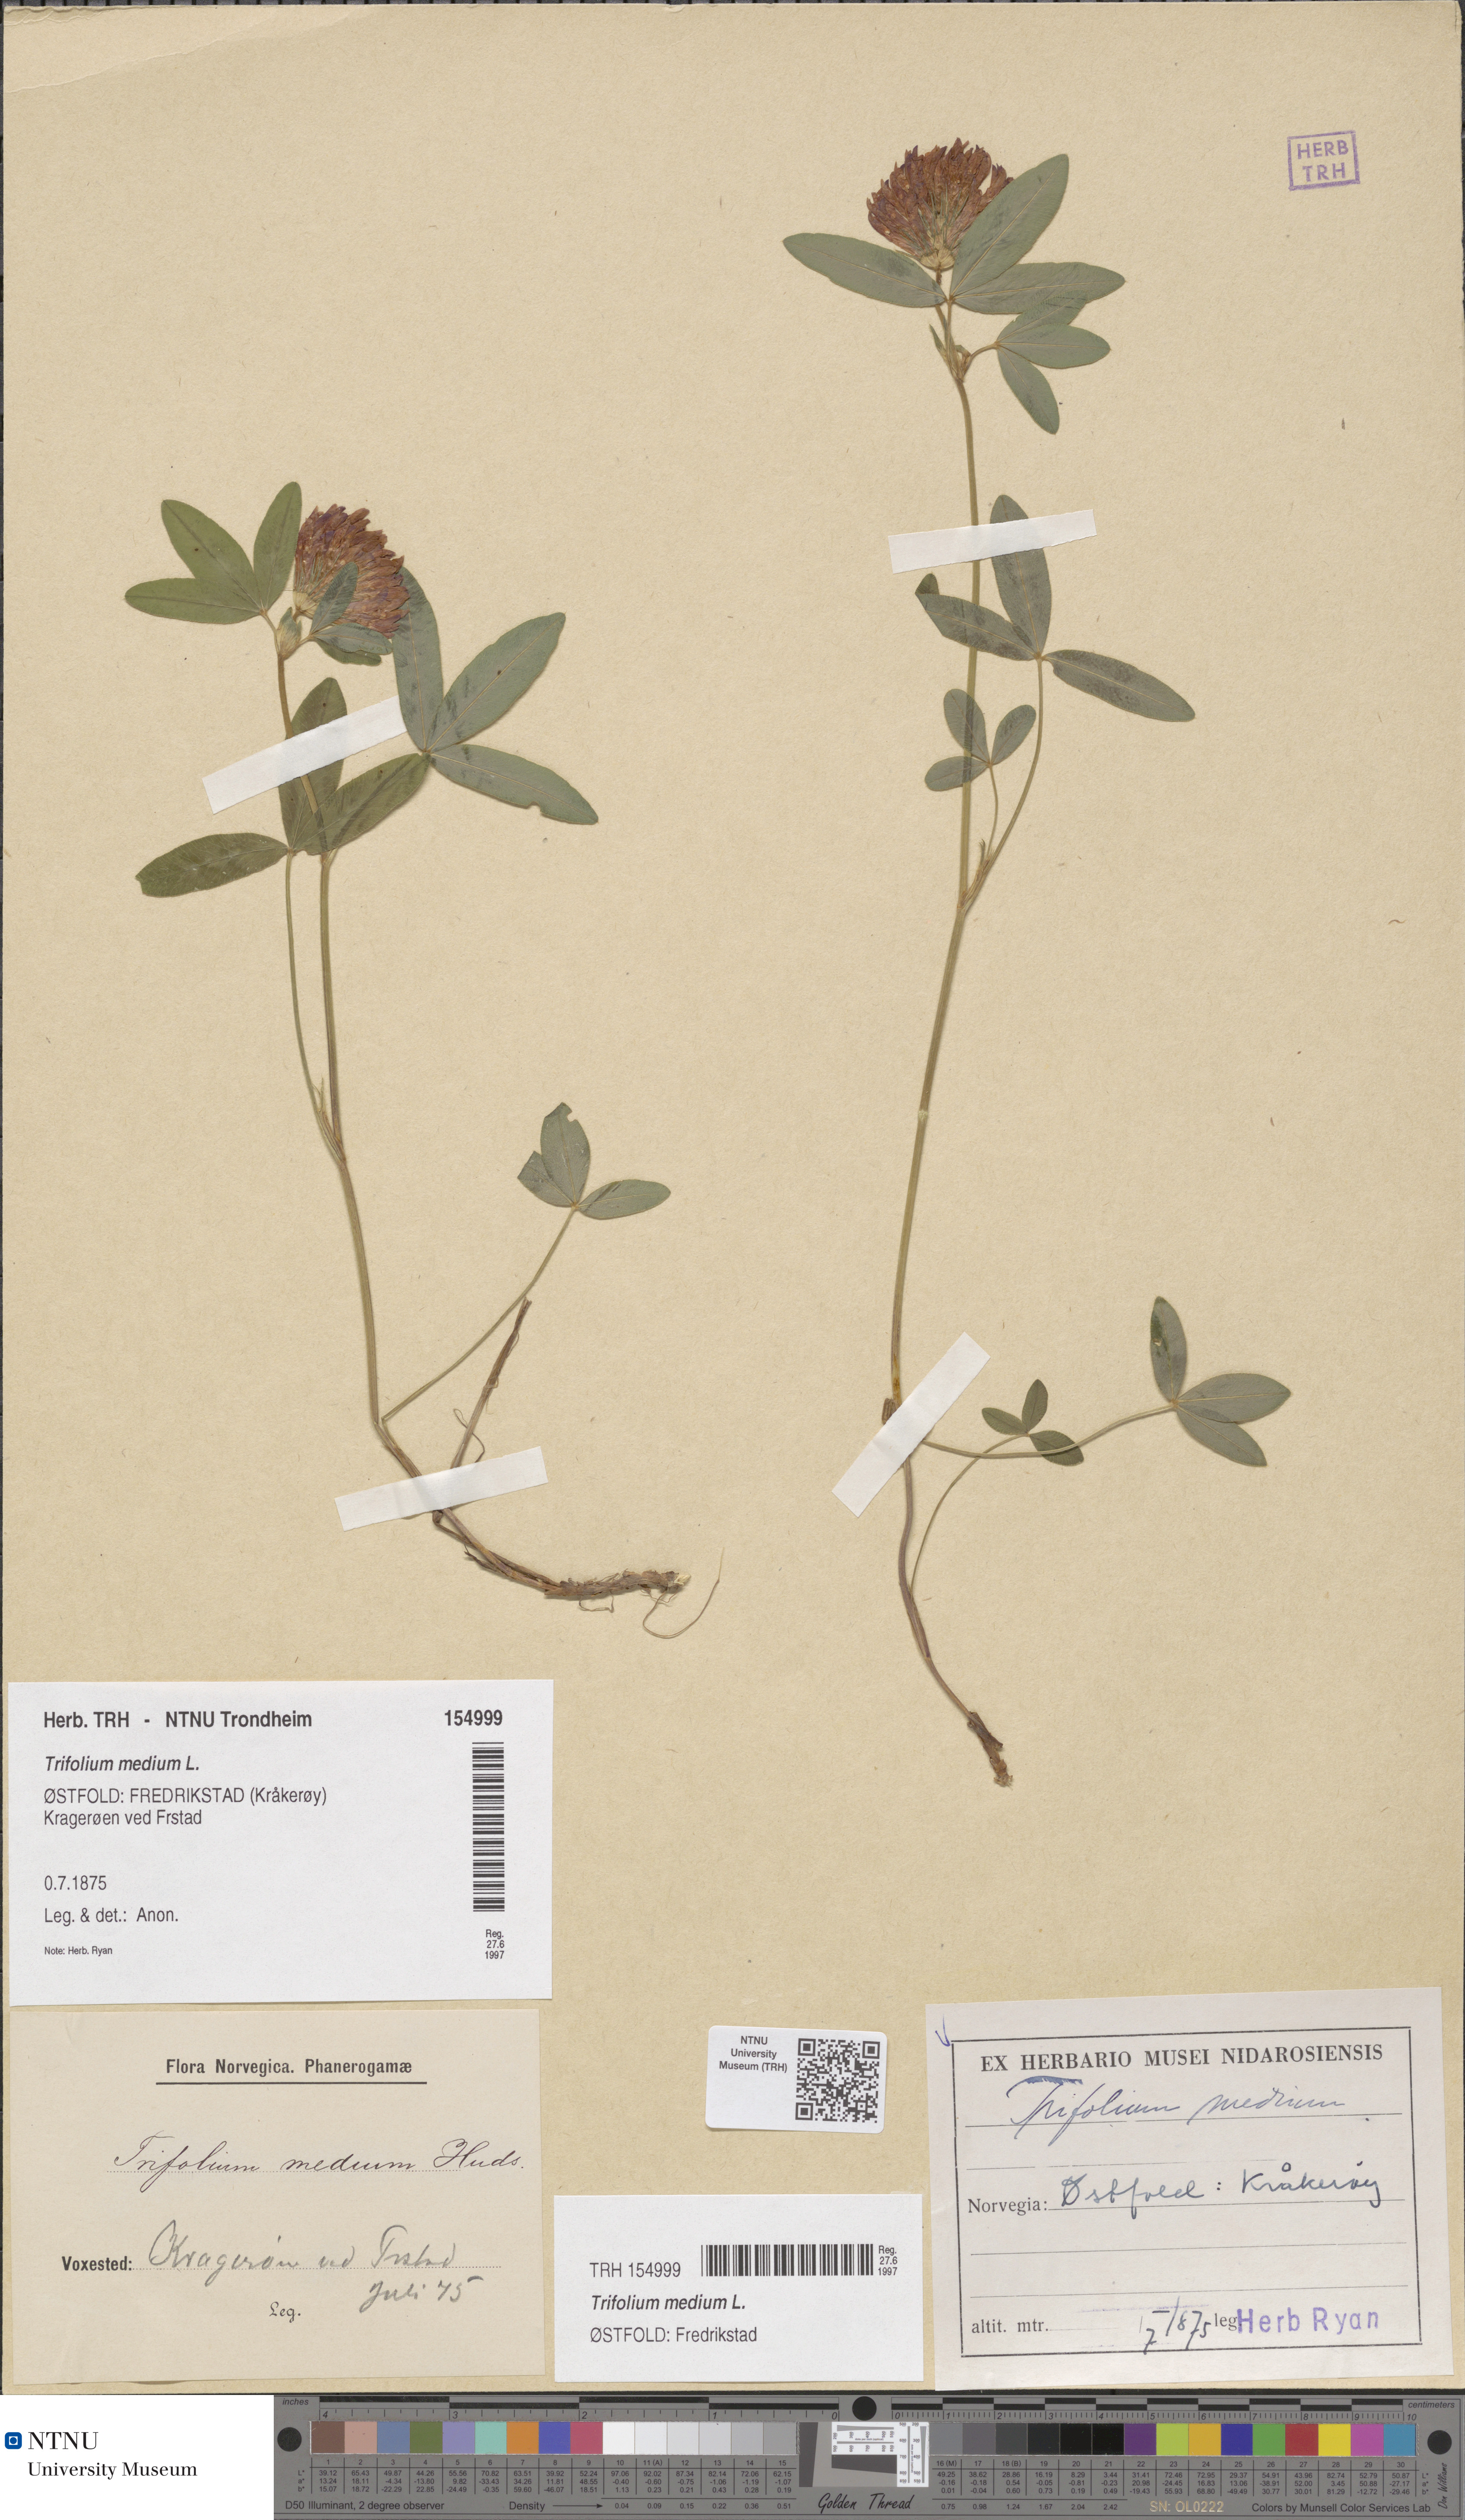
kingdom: Plantae
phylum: Tracheophyta
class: Magnoliopsida
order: Fabales
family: Fabaceae
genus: Trifolium
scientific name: Trifolium medium
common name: Zigzag clover
